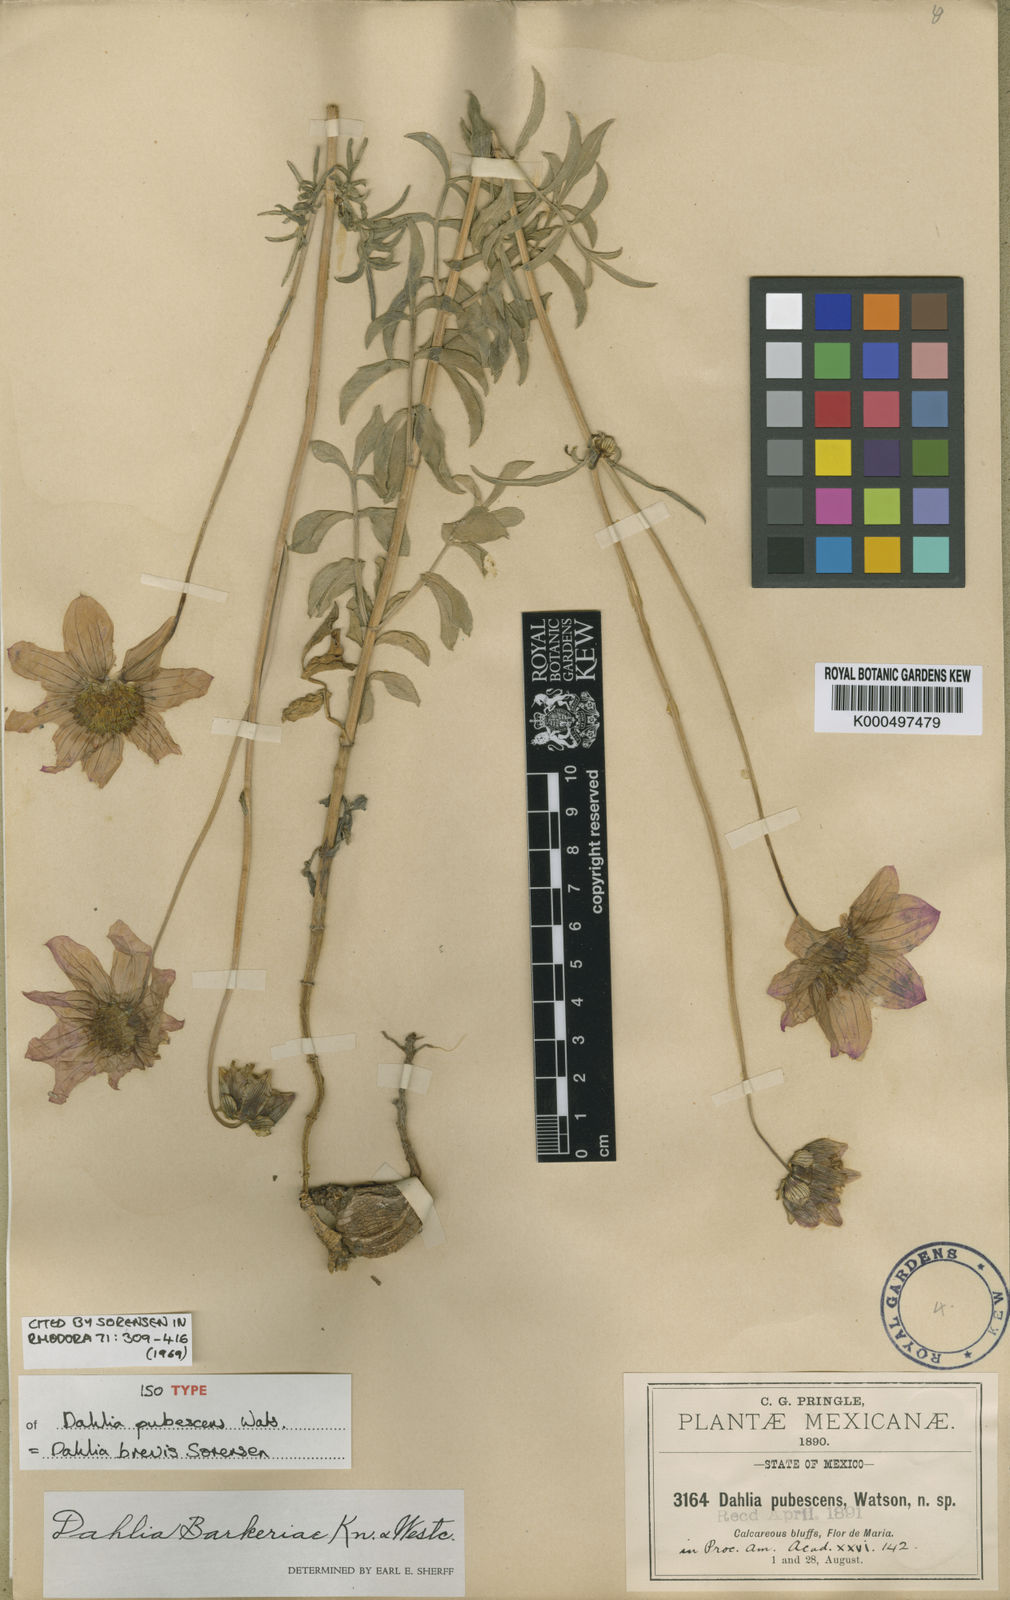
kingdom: Plantae
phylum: Tracheophyta
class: Magnoliopsida
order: Asterales
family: Asteraceae
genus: Dahlia
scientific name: Dahlia
